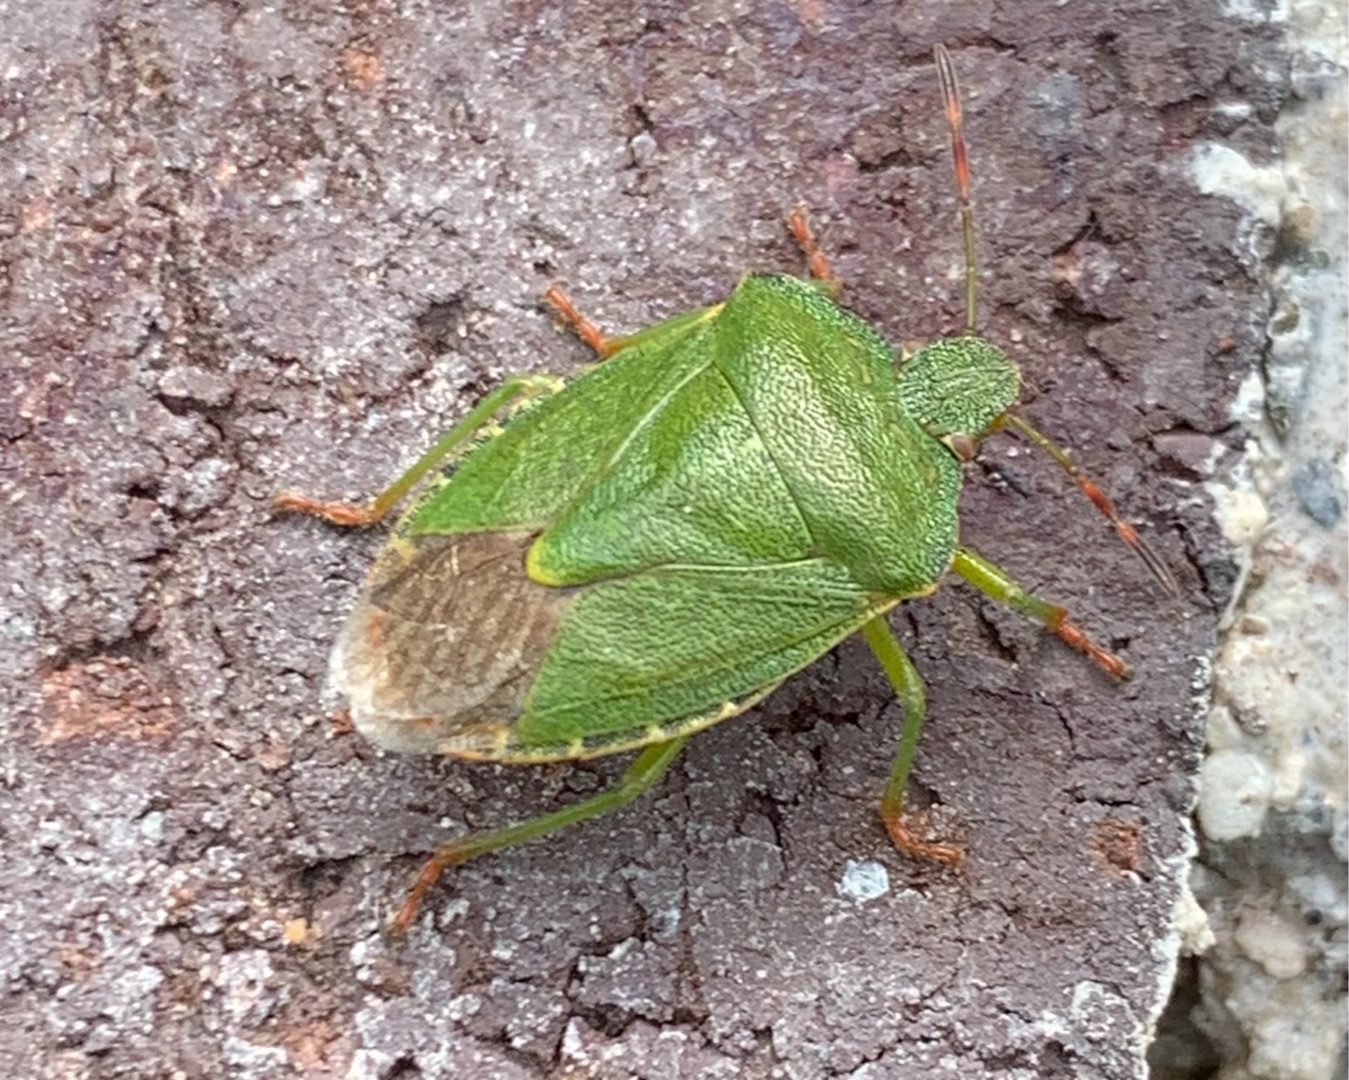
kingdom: Animalia
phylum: Arthropoda
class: Insecta
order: Hemiptera
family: Pentatomidae
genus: Palomena
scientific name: Palomena prasina
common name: Grøn bredtæge
